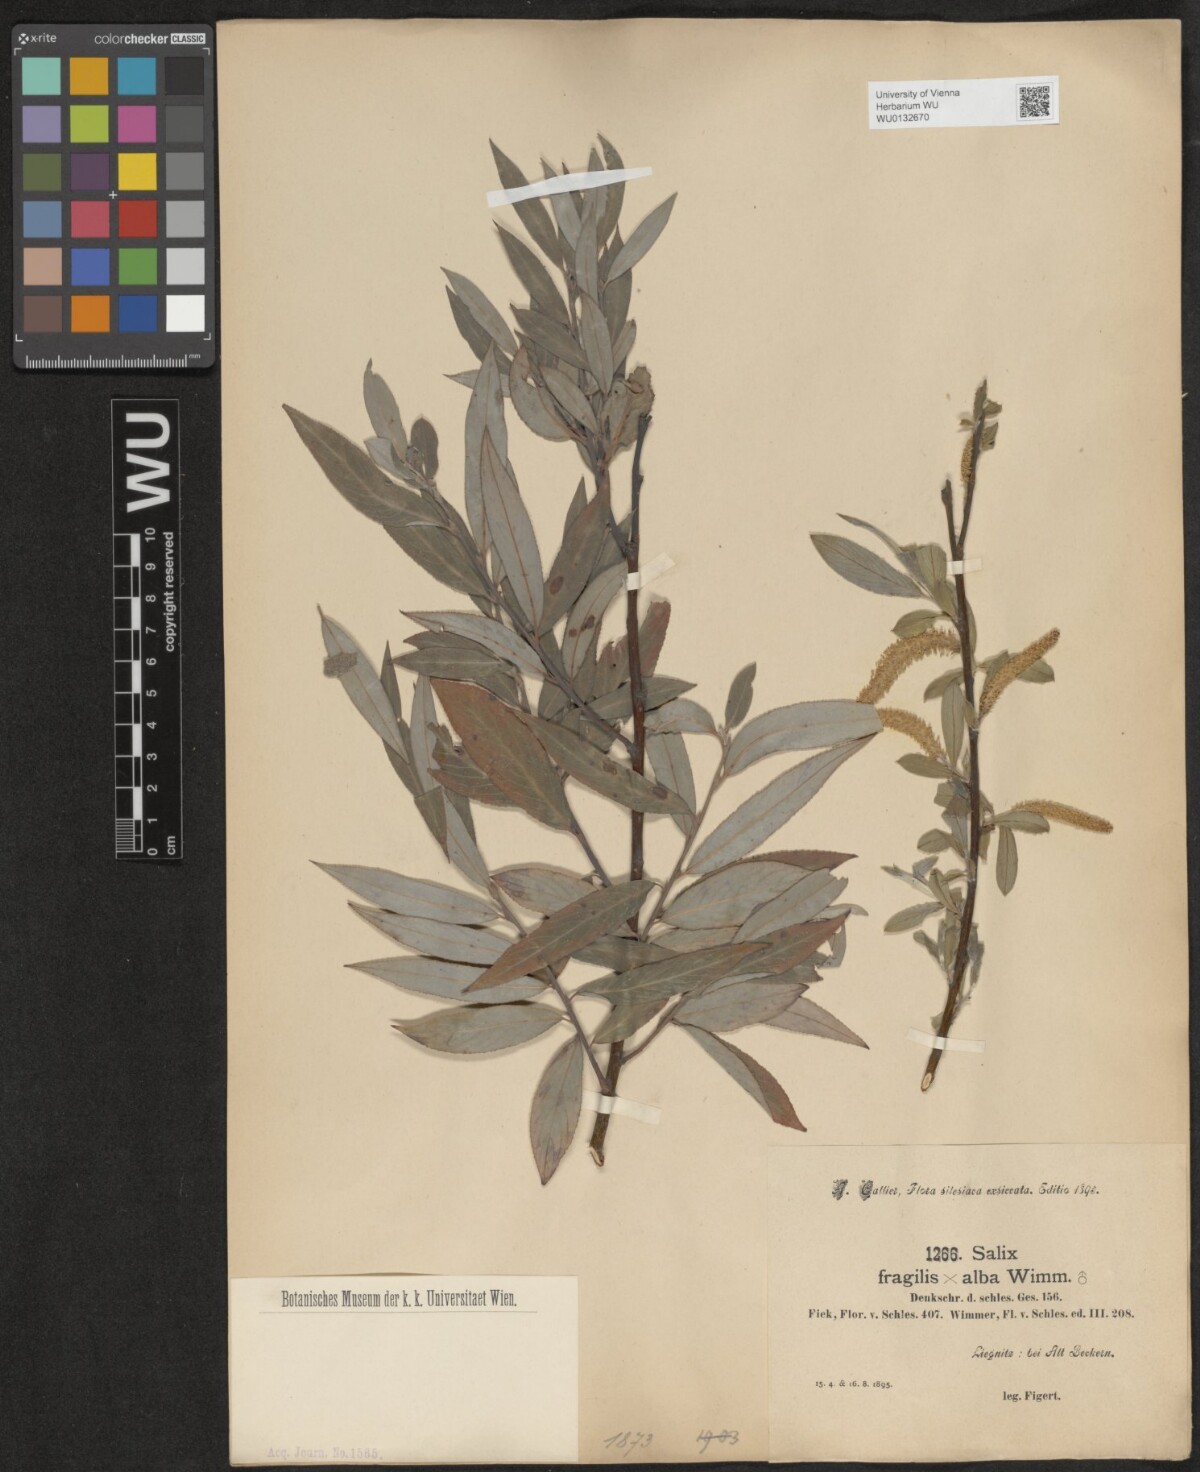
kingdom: Plantae
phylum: Tracheophyta
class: Magnoliopsida
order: Malpighiales
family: Salicaceae
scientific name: Salicaceae
